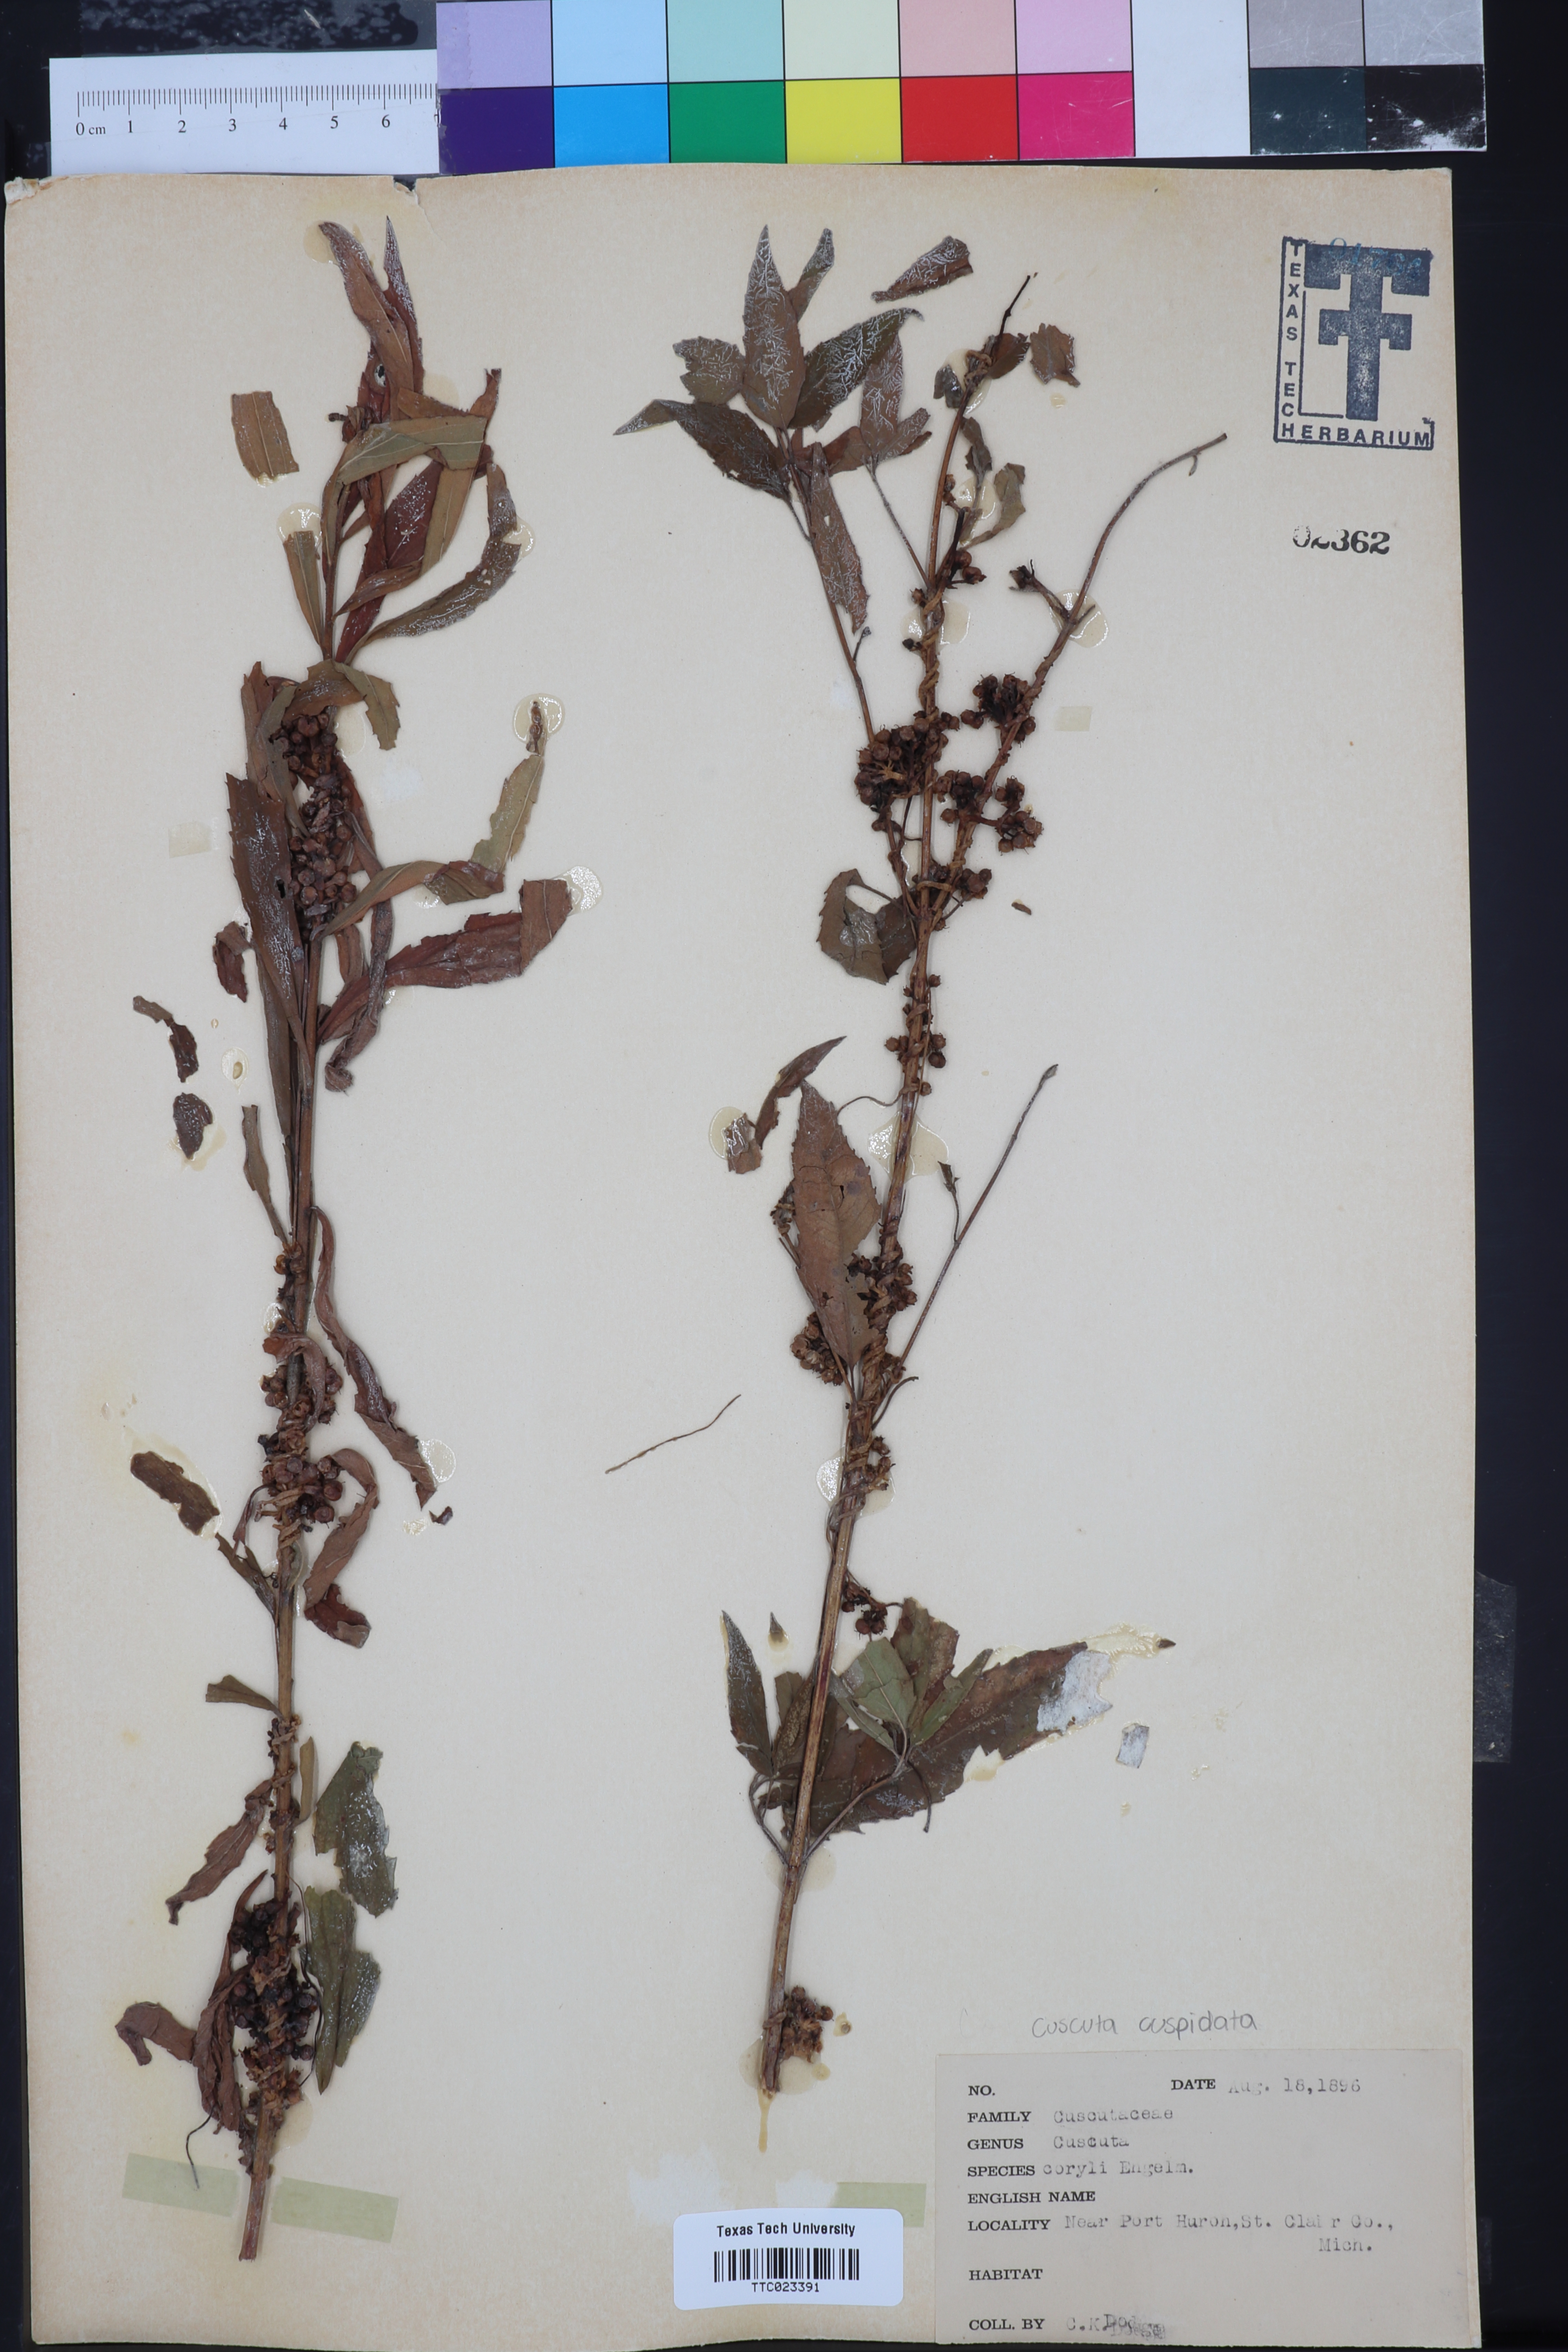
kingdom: Plantae
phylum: Tracheophyta
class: Magnoliopsida
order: Solanales
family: Convolvulaceae
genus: Cuscuta
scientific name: Cuscuta cuspidata
